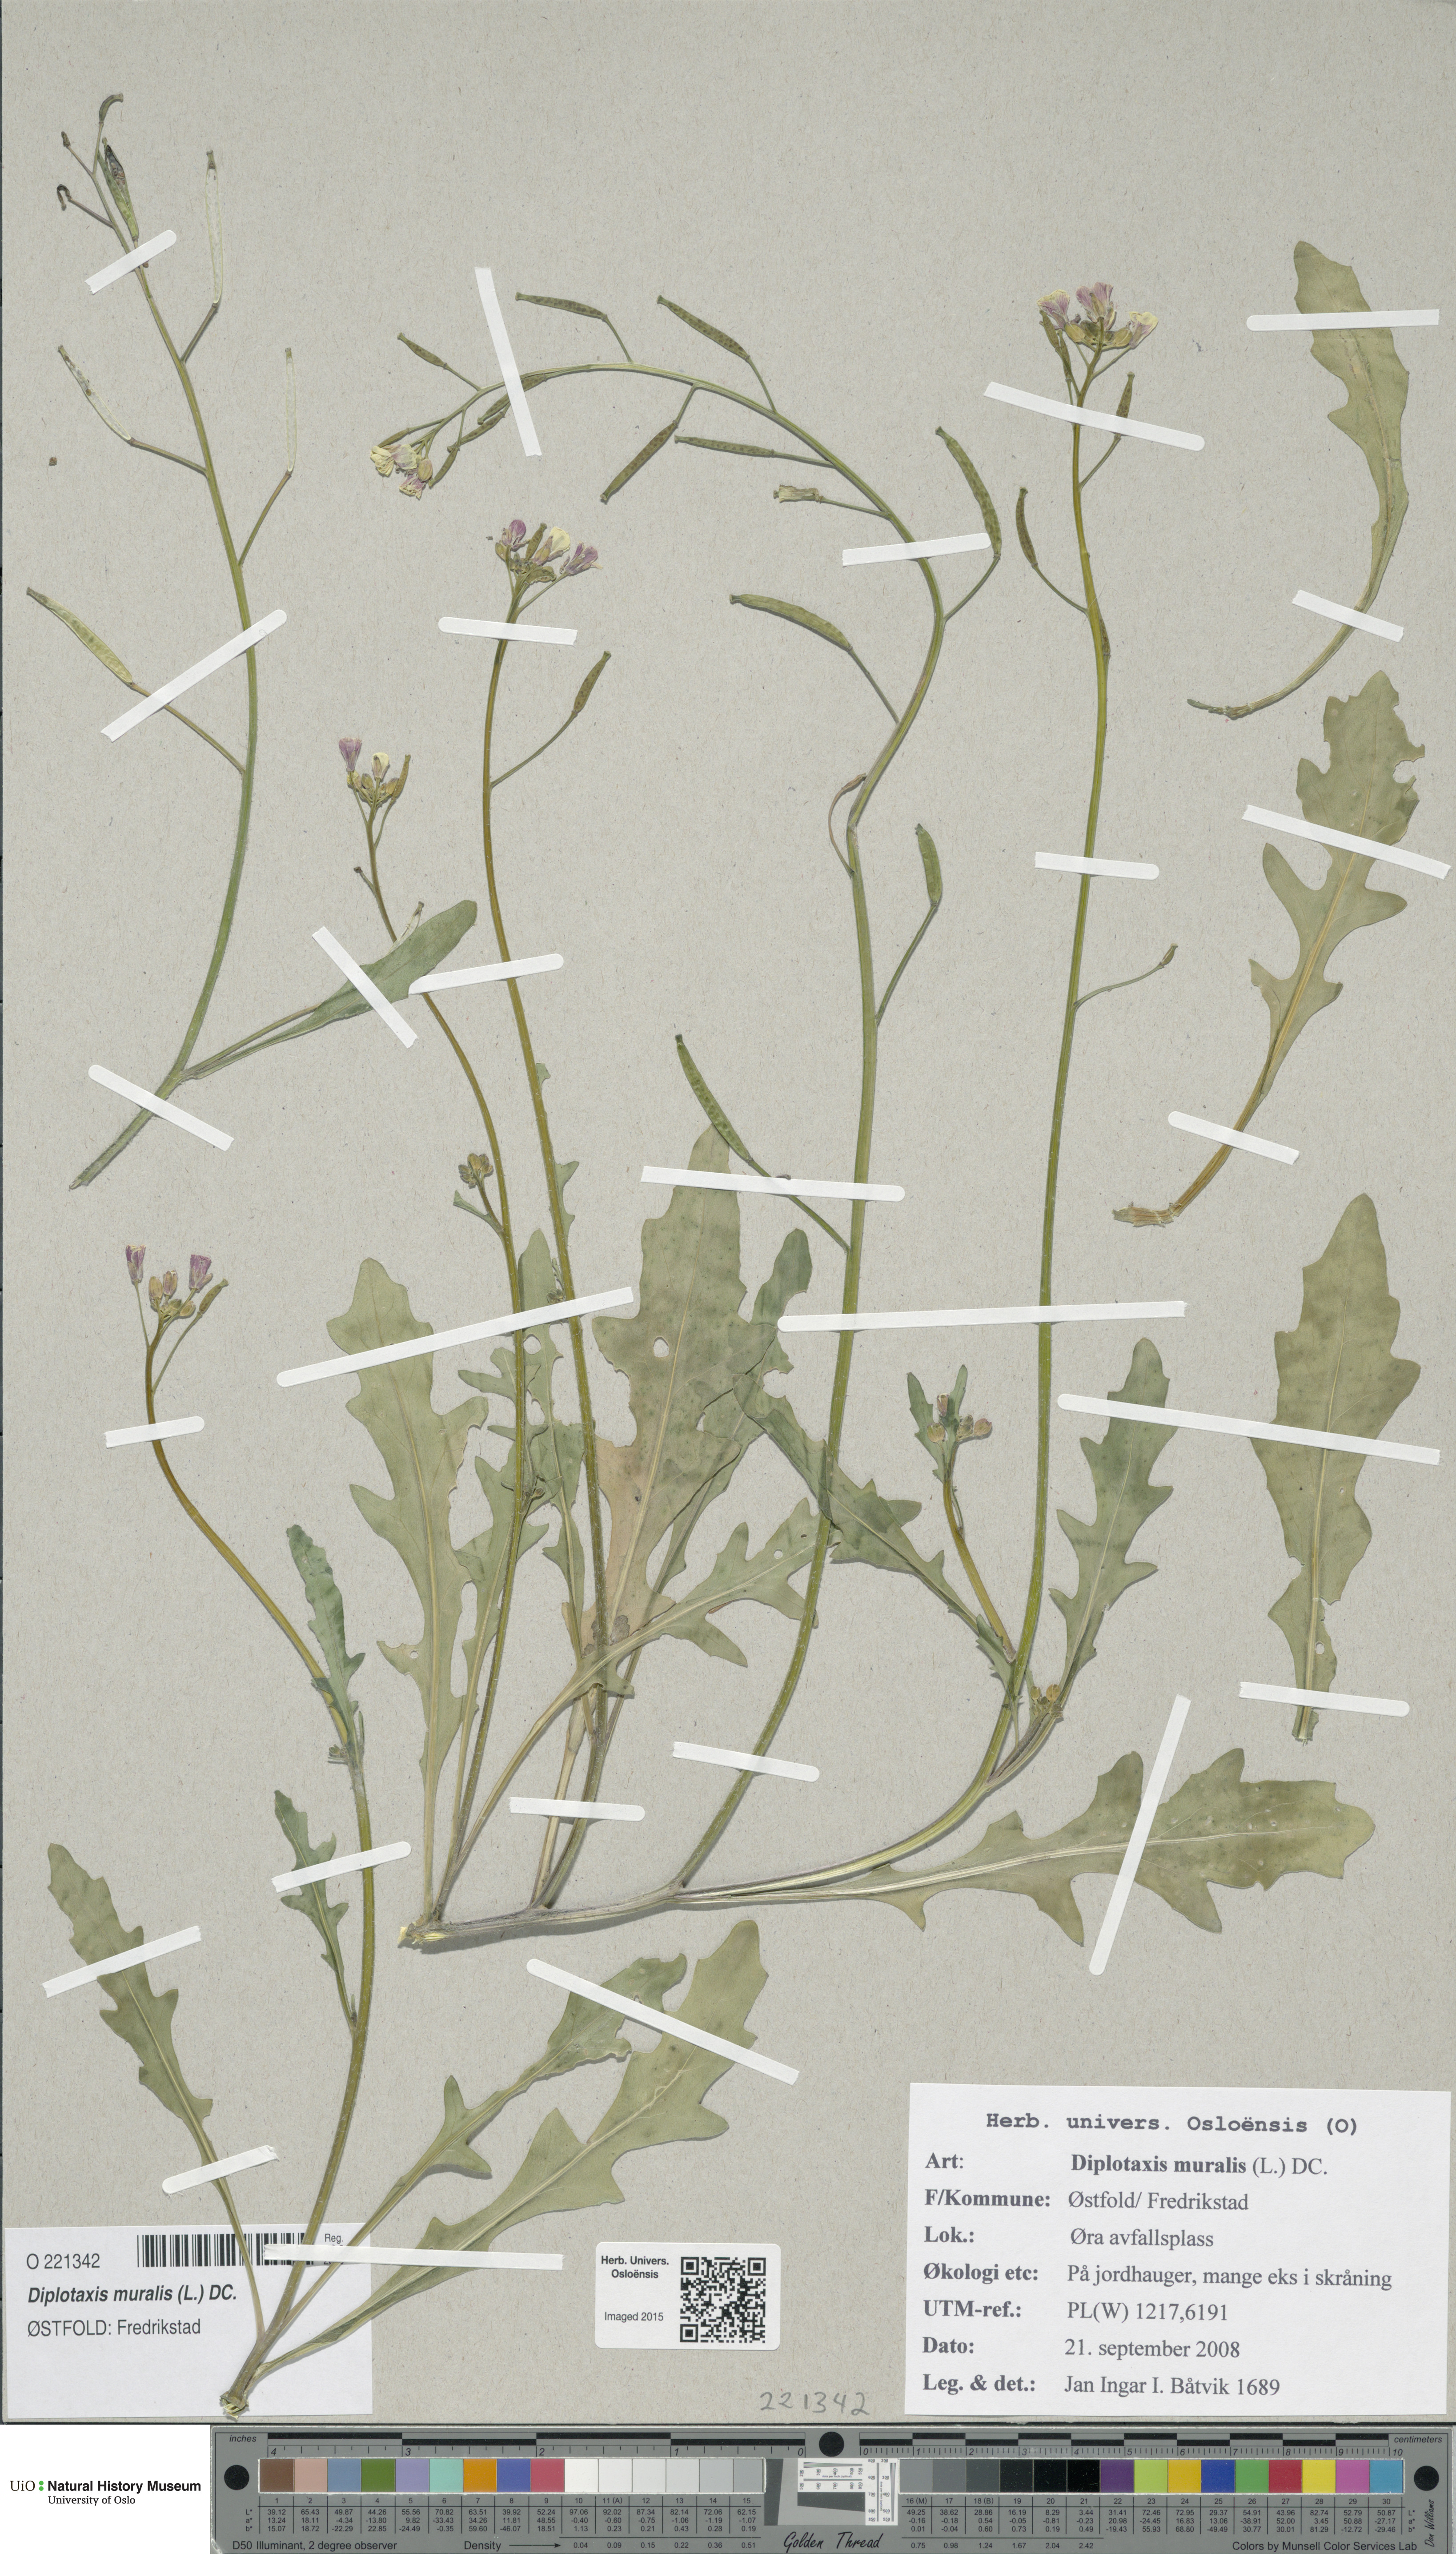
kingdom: Plantae
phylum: Tracheophyta
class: Magnoliopsida
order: Brassicales
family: Brassicaceae
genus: Diplotaxis
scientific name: Diplotaxis muralis
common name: Annual wall-rocket
